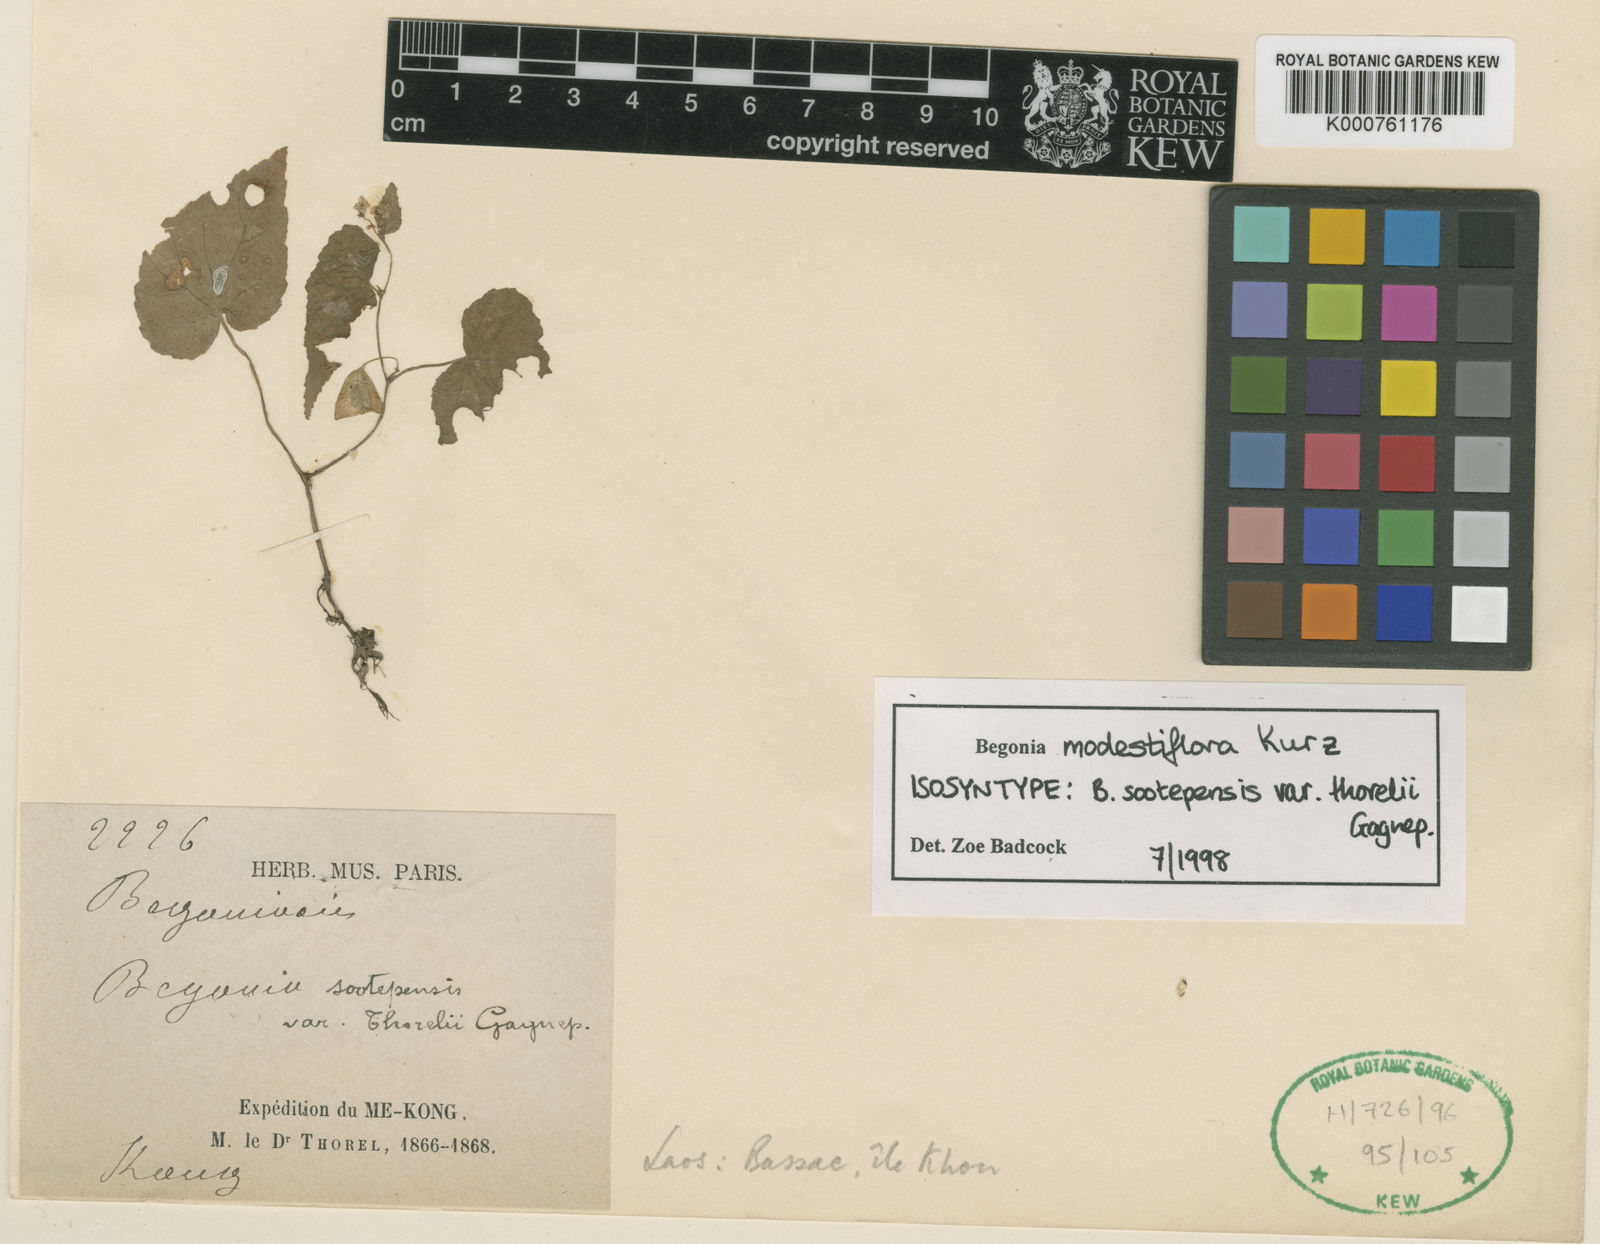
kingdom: Plantae
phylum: Tracheophyta
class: Magnoliopsida
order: Cucurbitales
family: Begoniaceae
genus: Begonia
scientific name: Begonia modestiflora
